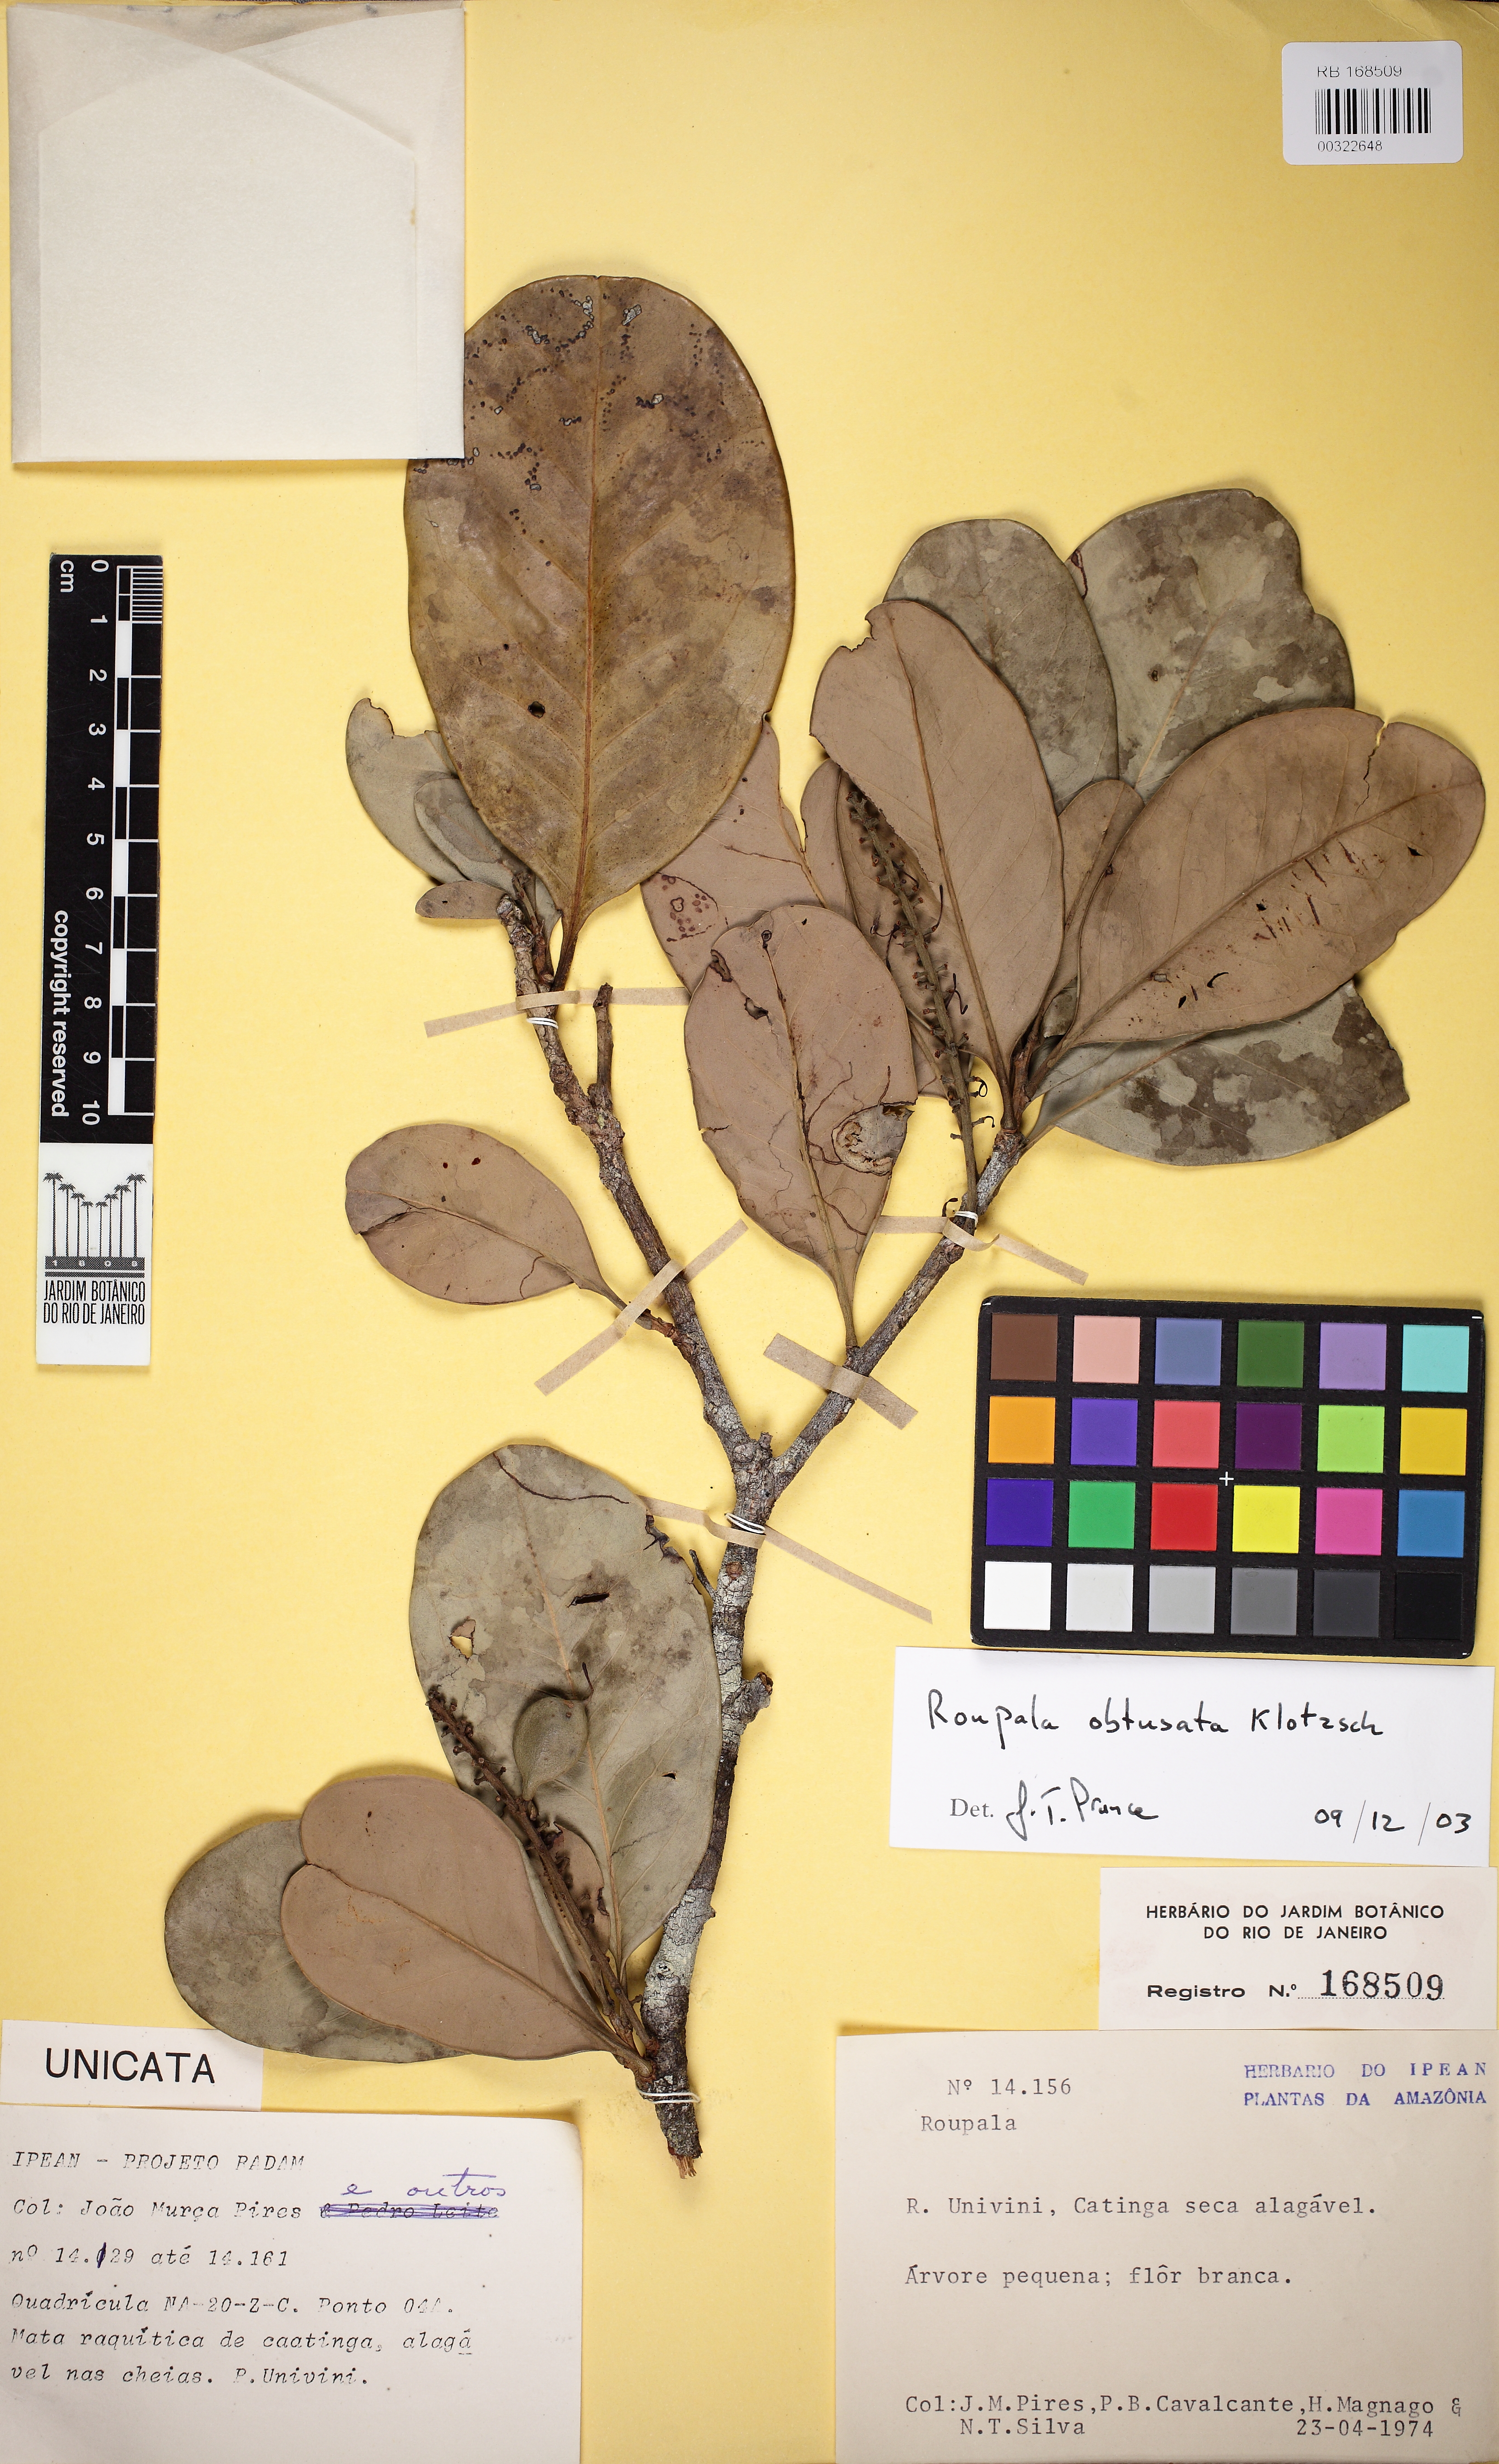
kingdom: Plantae
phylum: Tracheophyta
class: Magnoliopsida
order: Proteales
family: Proteaceae
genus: Roupala
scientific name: Roupala obtusata
